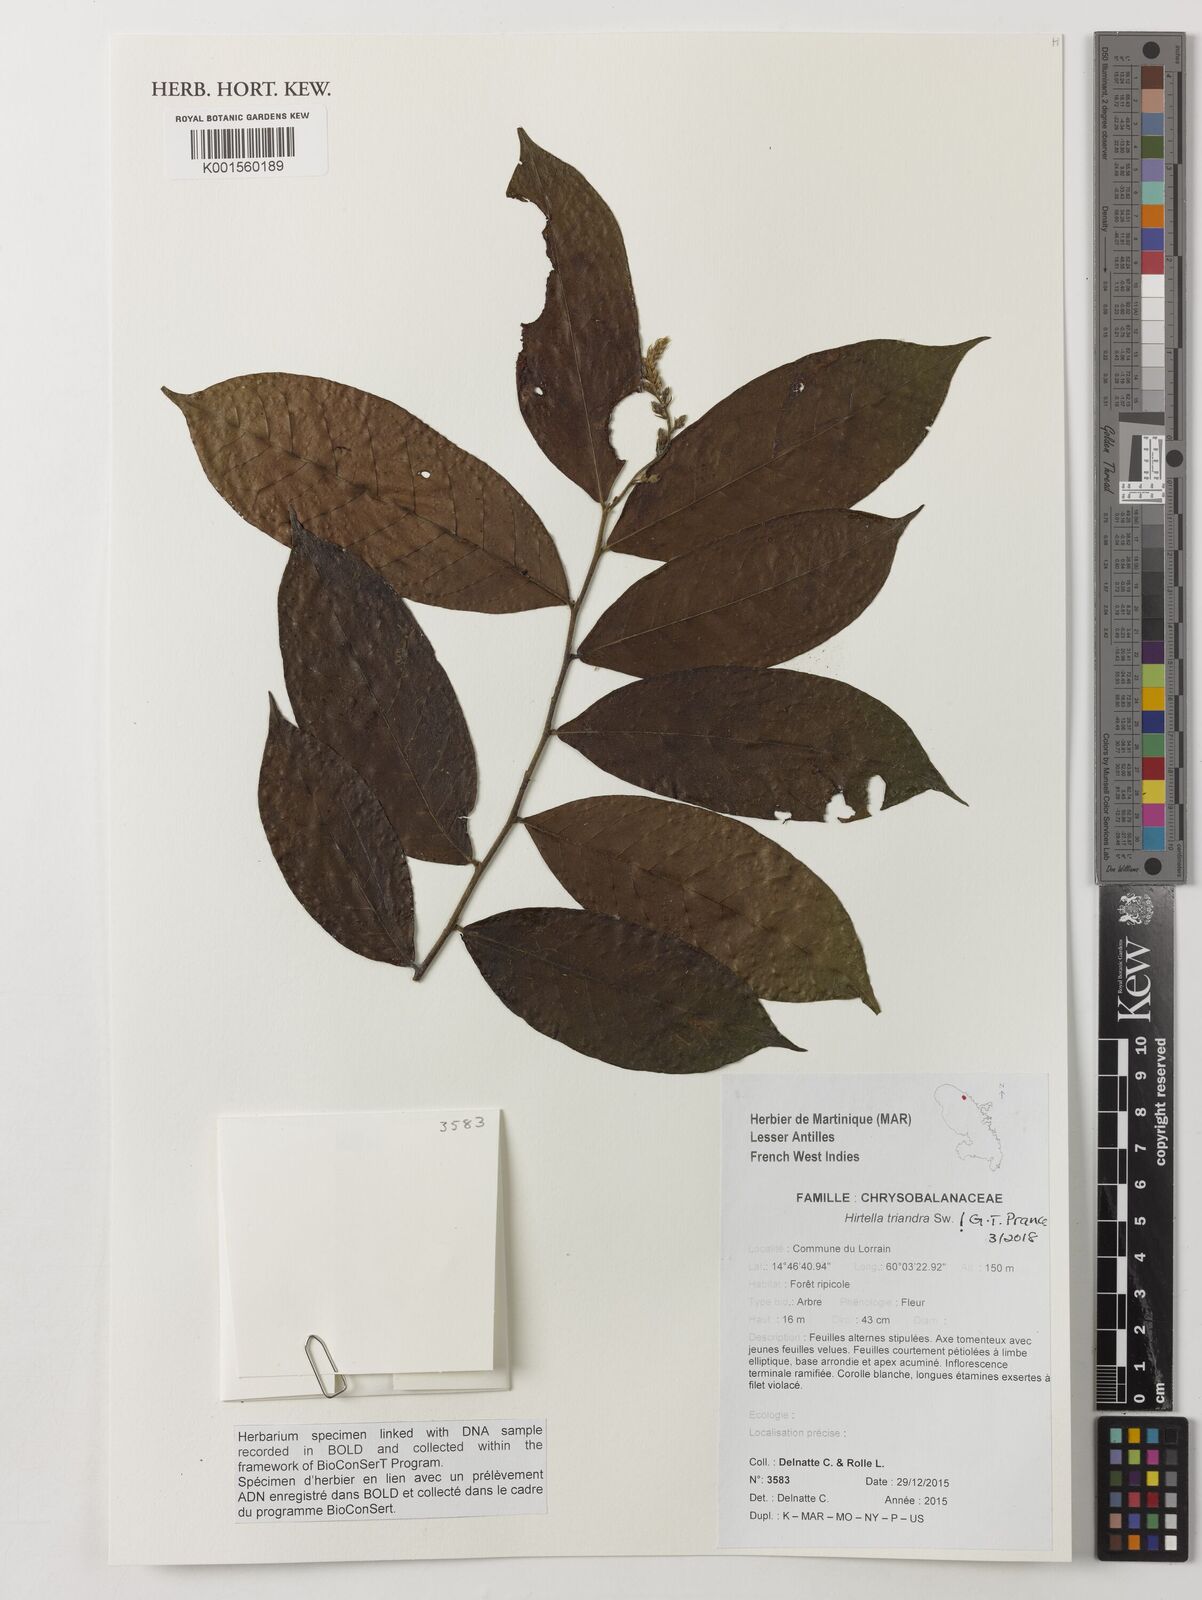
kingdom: Plantae
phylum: Tracheophyta
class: Magnoliopsida
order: Malpighiales
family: Chrysobalanaceae
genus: Hirtella
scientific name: Hirtella triandra
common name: Hairy plum
